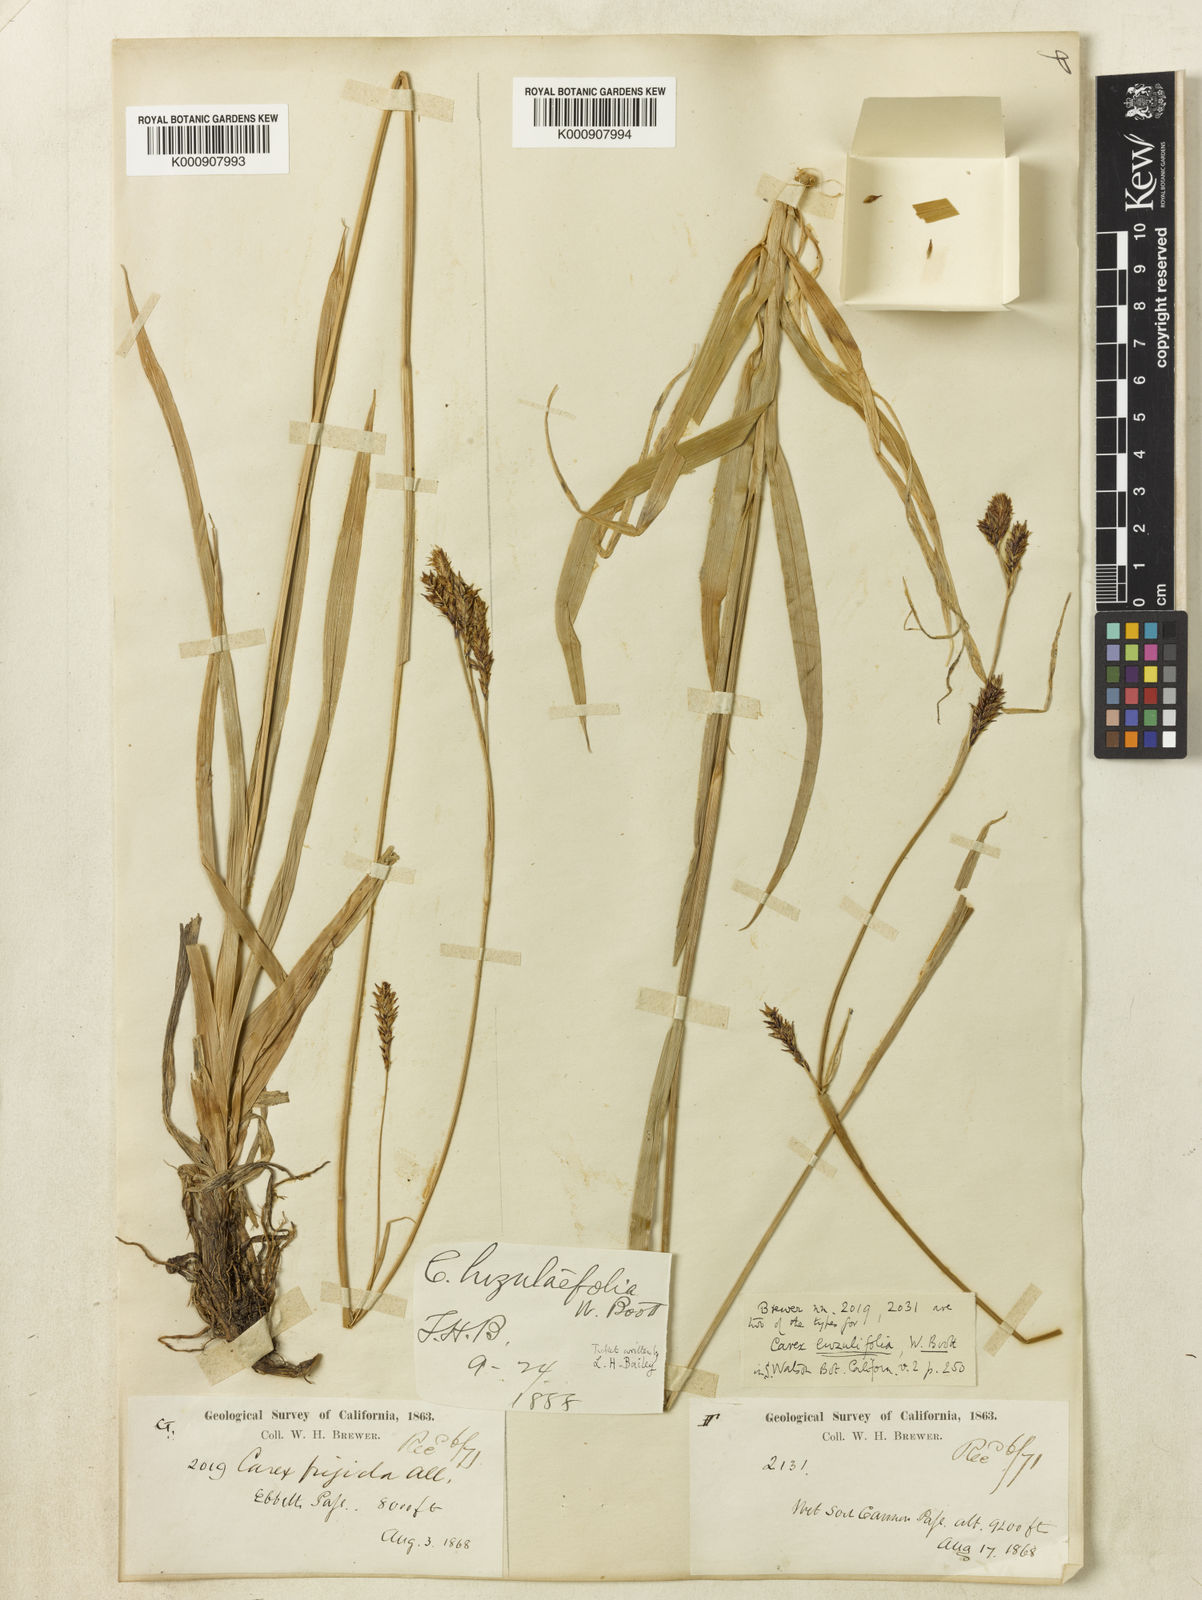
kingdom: Plantae
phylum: Tracheophyta
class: Liliopsida
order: Poales
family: Cyperaceae
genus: Carex
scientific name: Carex luzulifolia
